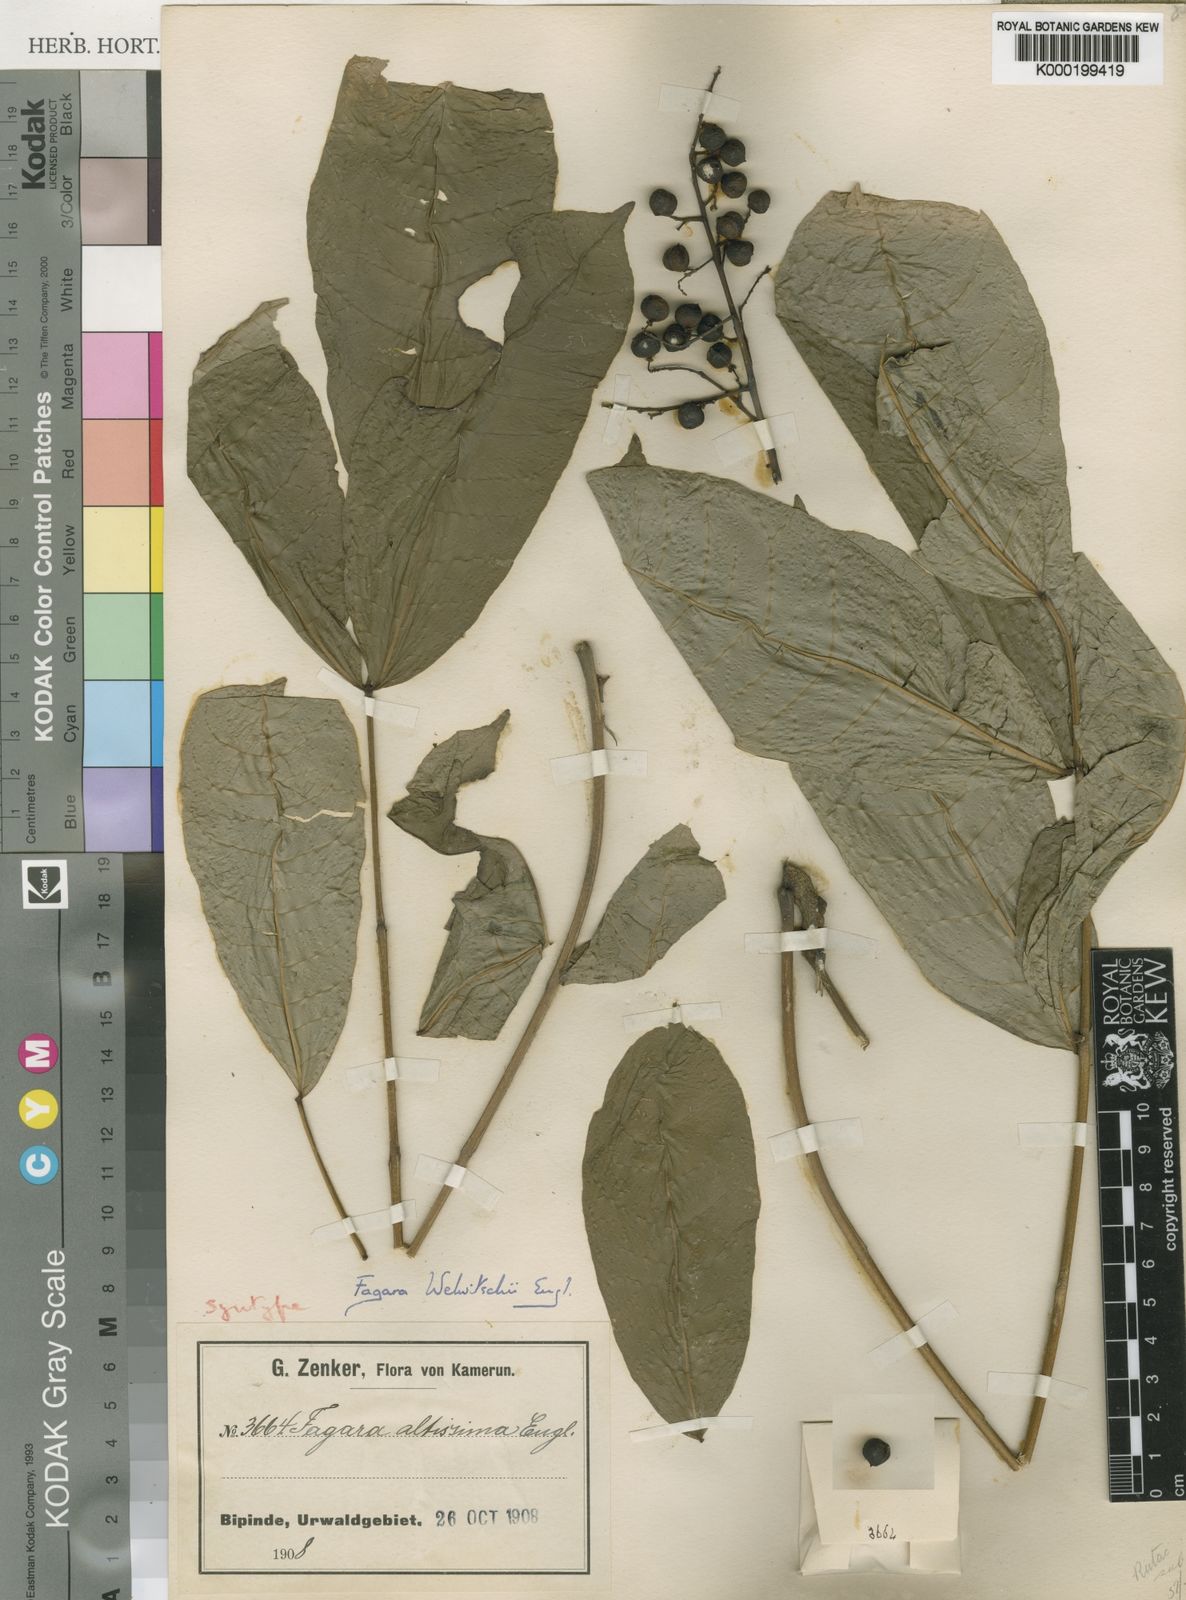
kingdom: Plantae
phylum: Tracheophyta
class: Magnoliopsida
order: Sapindales
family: Rutaceae
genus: Vepris
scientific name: Vepris grandifolia
